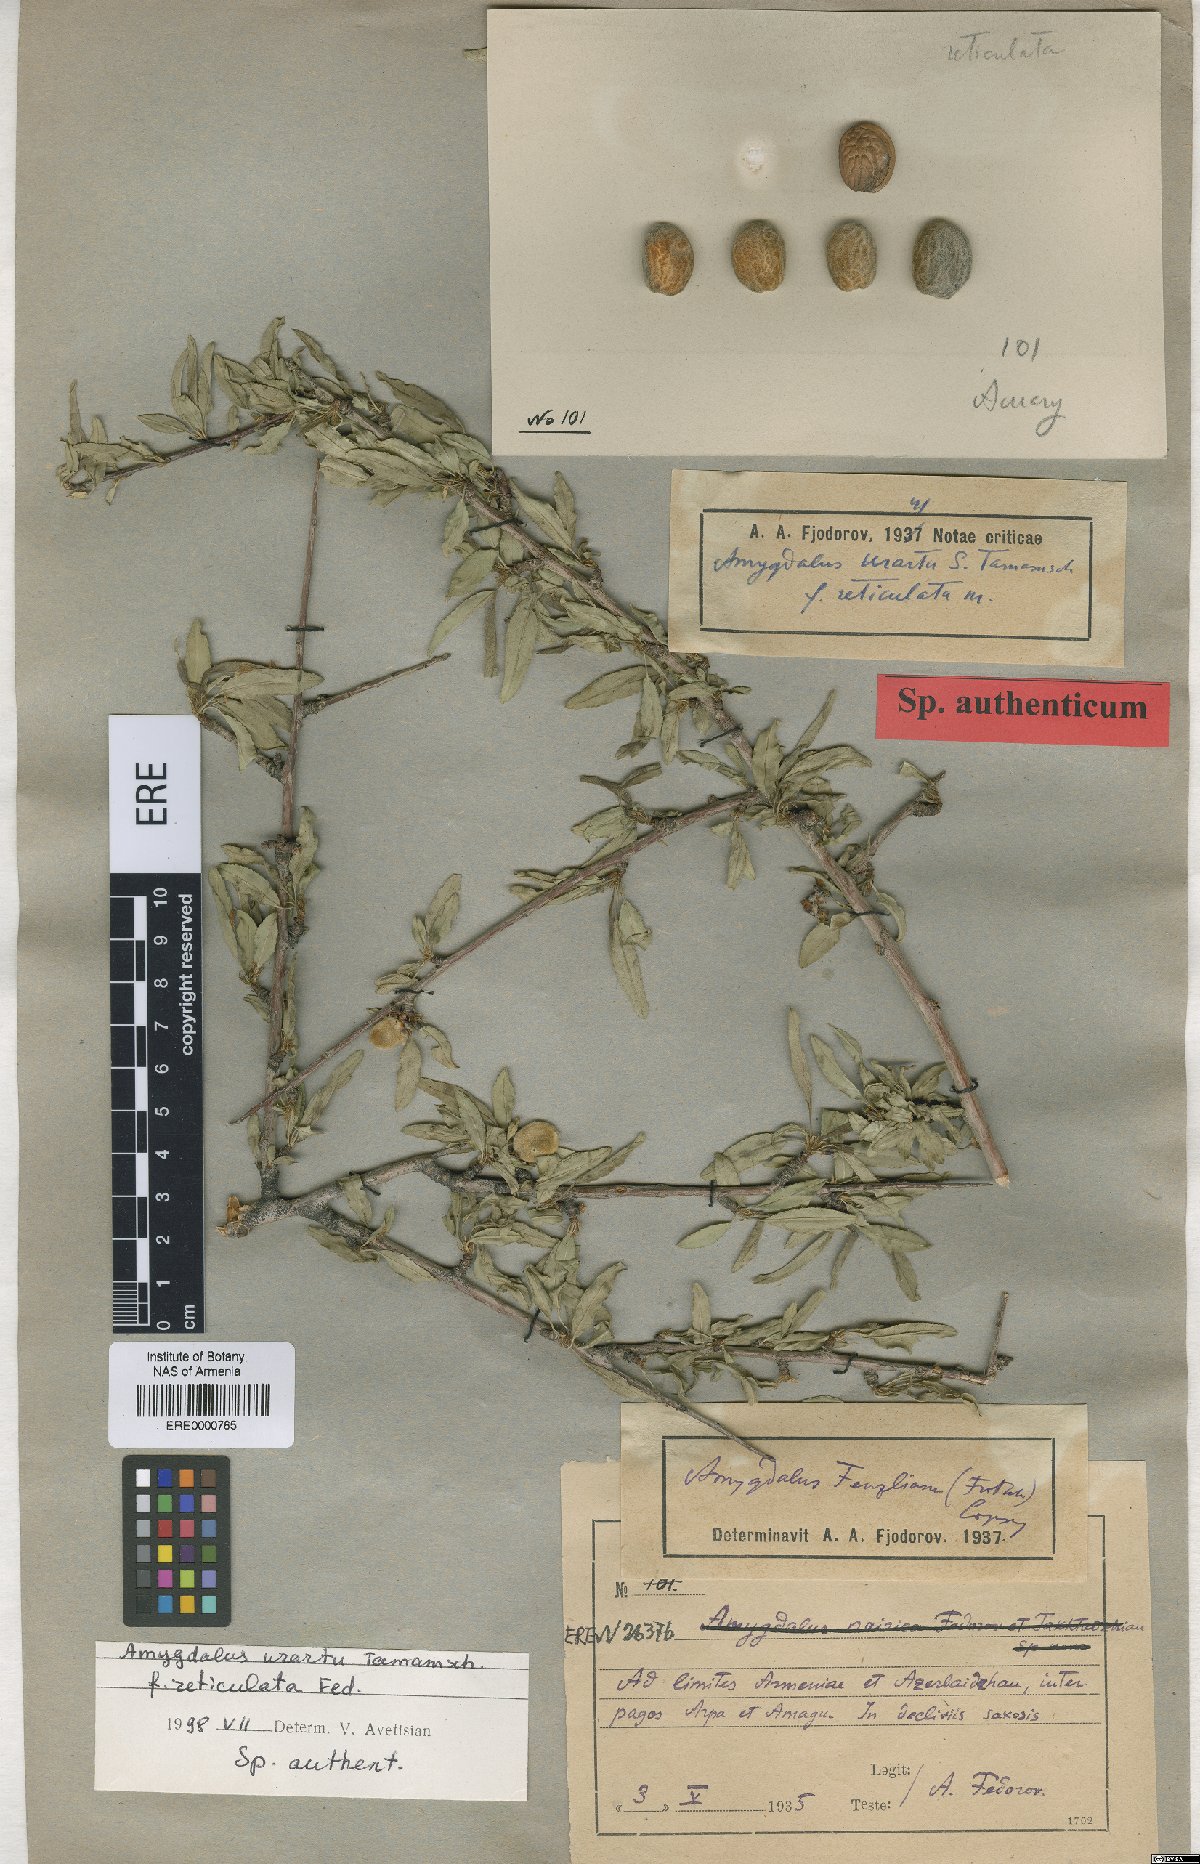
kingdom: Plantae
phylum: Tracheophyta
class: Magnoliopsida
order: Rosales
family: Rosaceae
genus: Prunus
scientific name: Prunus urartu
